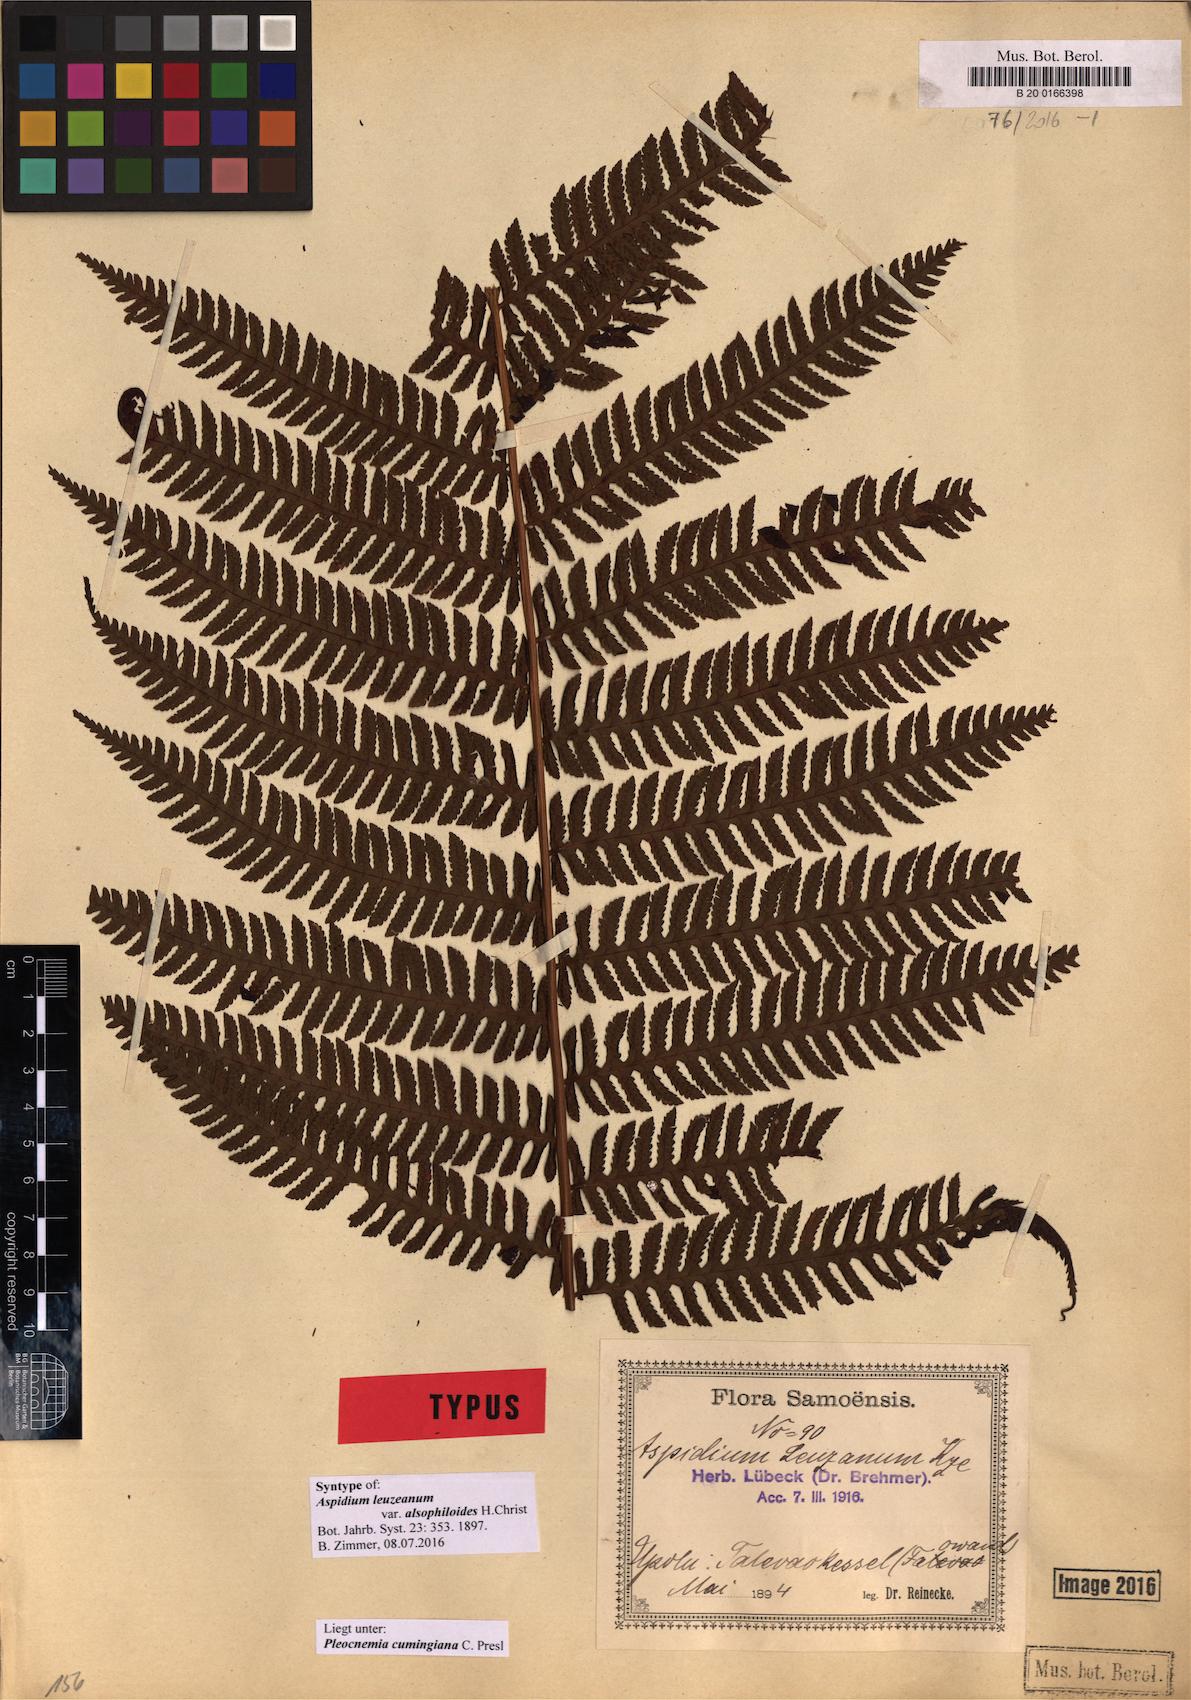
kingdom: Plantae
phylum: Tracheophyta
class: Polypodiopsida
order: Polypodiales
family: Dryopteridaceae
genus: Pleocnemia
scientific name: Pleocnemia cumingiana
